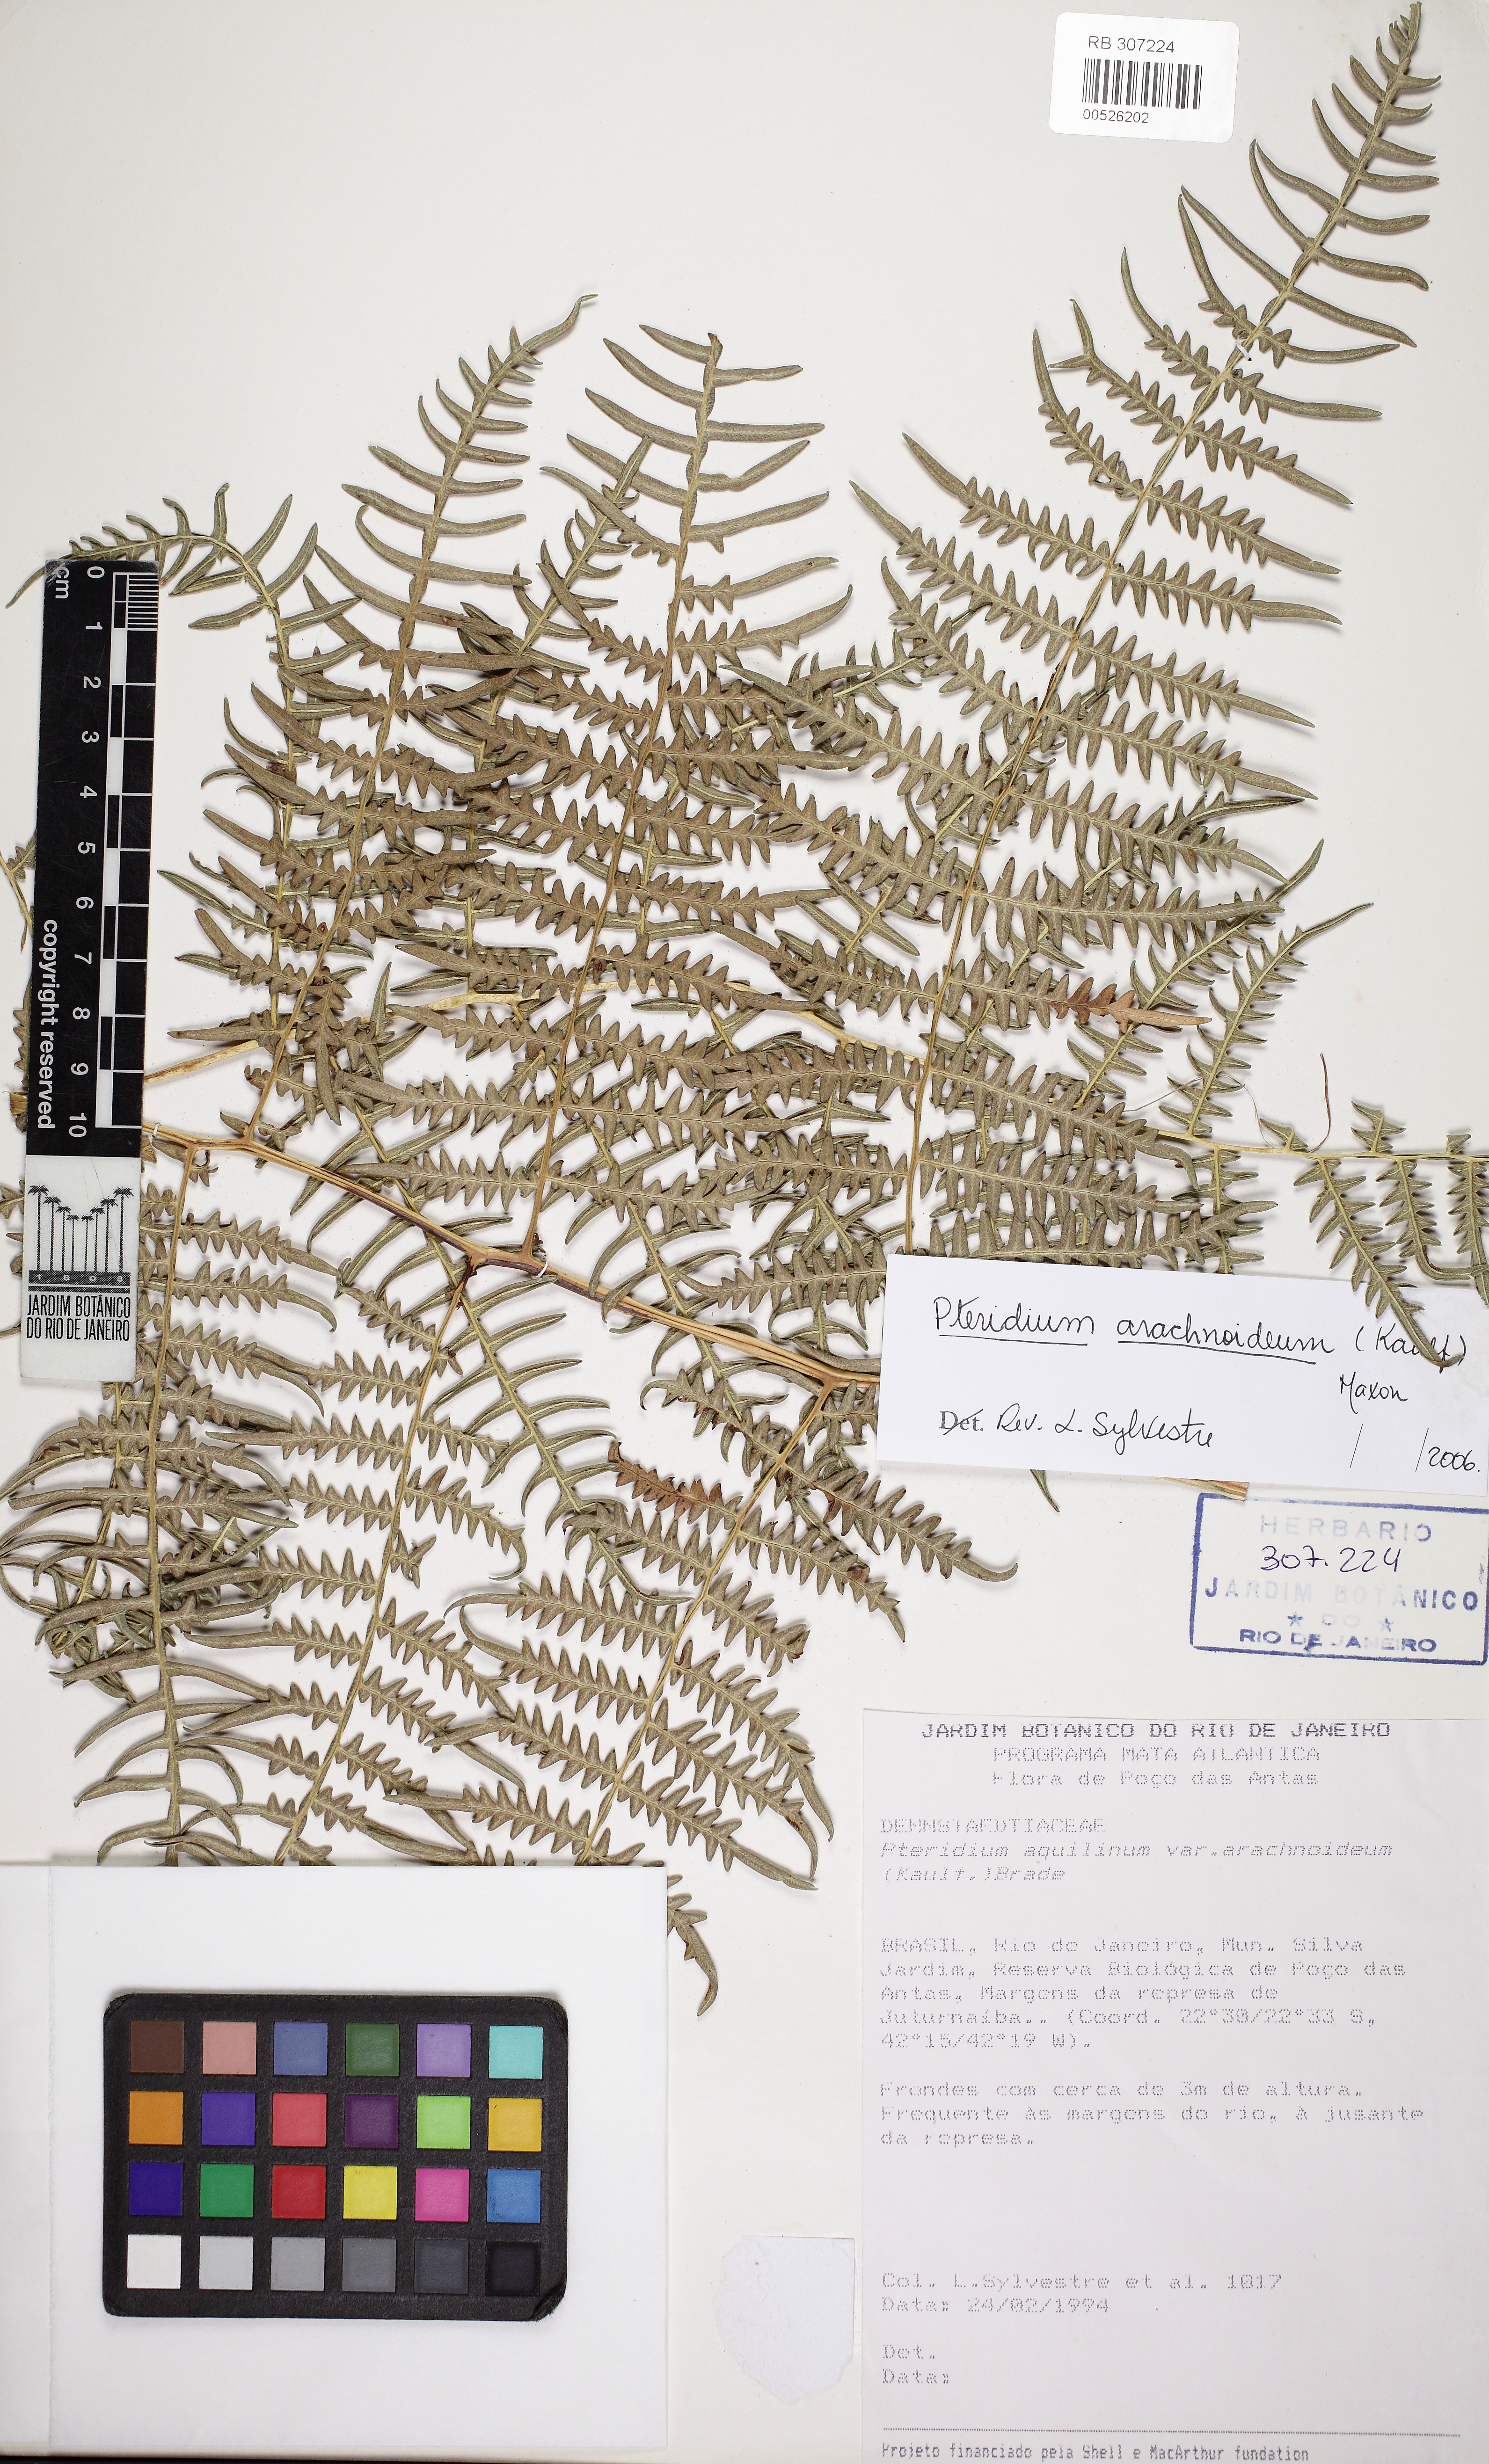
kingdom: Plantae
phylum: Tracheophyta
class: Polypodiopsida
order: Polypodiales
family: Dennstaedtiaceae
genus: Pteridium
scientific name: Pteridium esculentum
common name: Bracken fern
